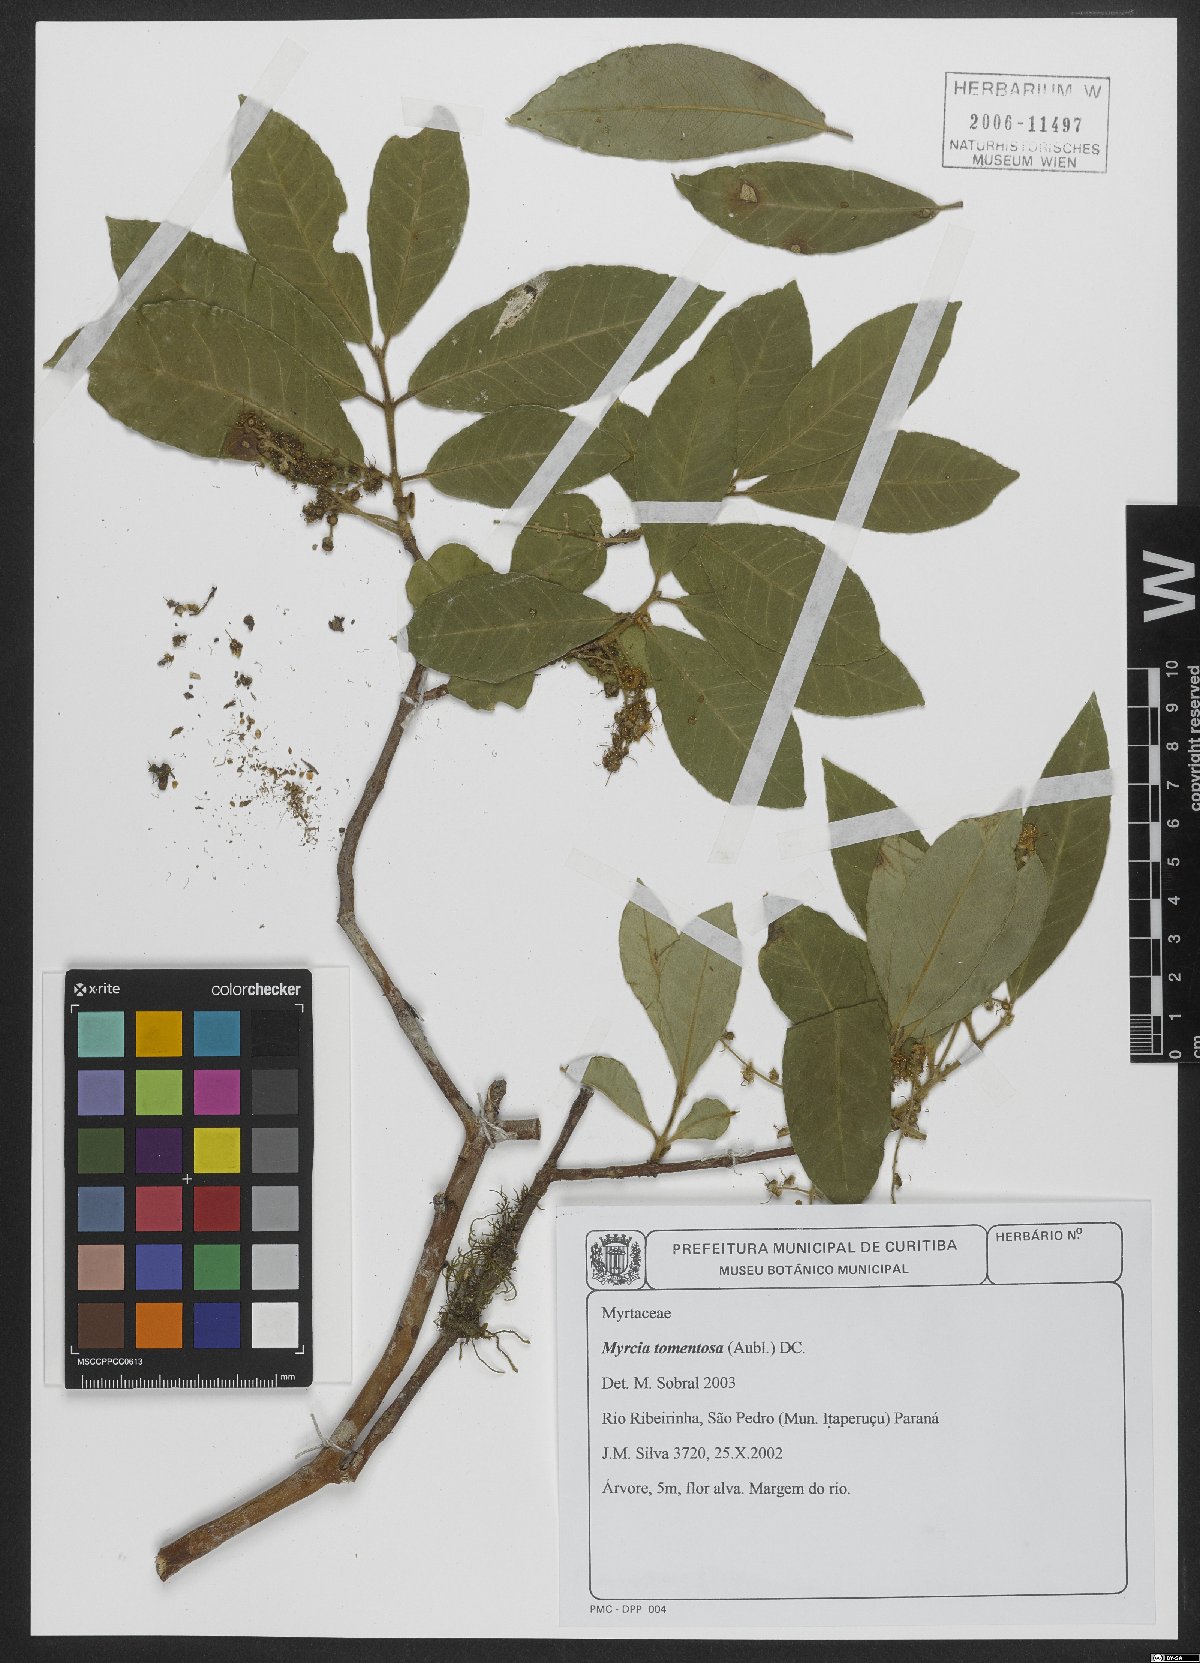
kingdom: Plantae
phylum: Tracheophyta
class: Magnoliopsida
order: Myrtales
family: Myrtaceae
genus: Myrcia
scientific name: Myrcia tomentosa
